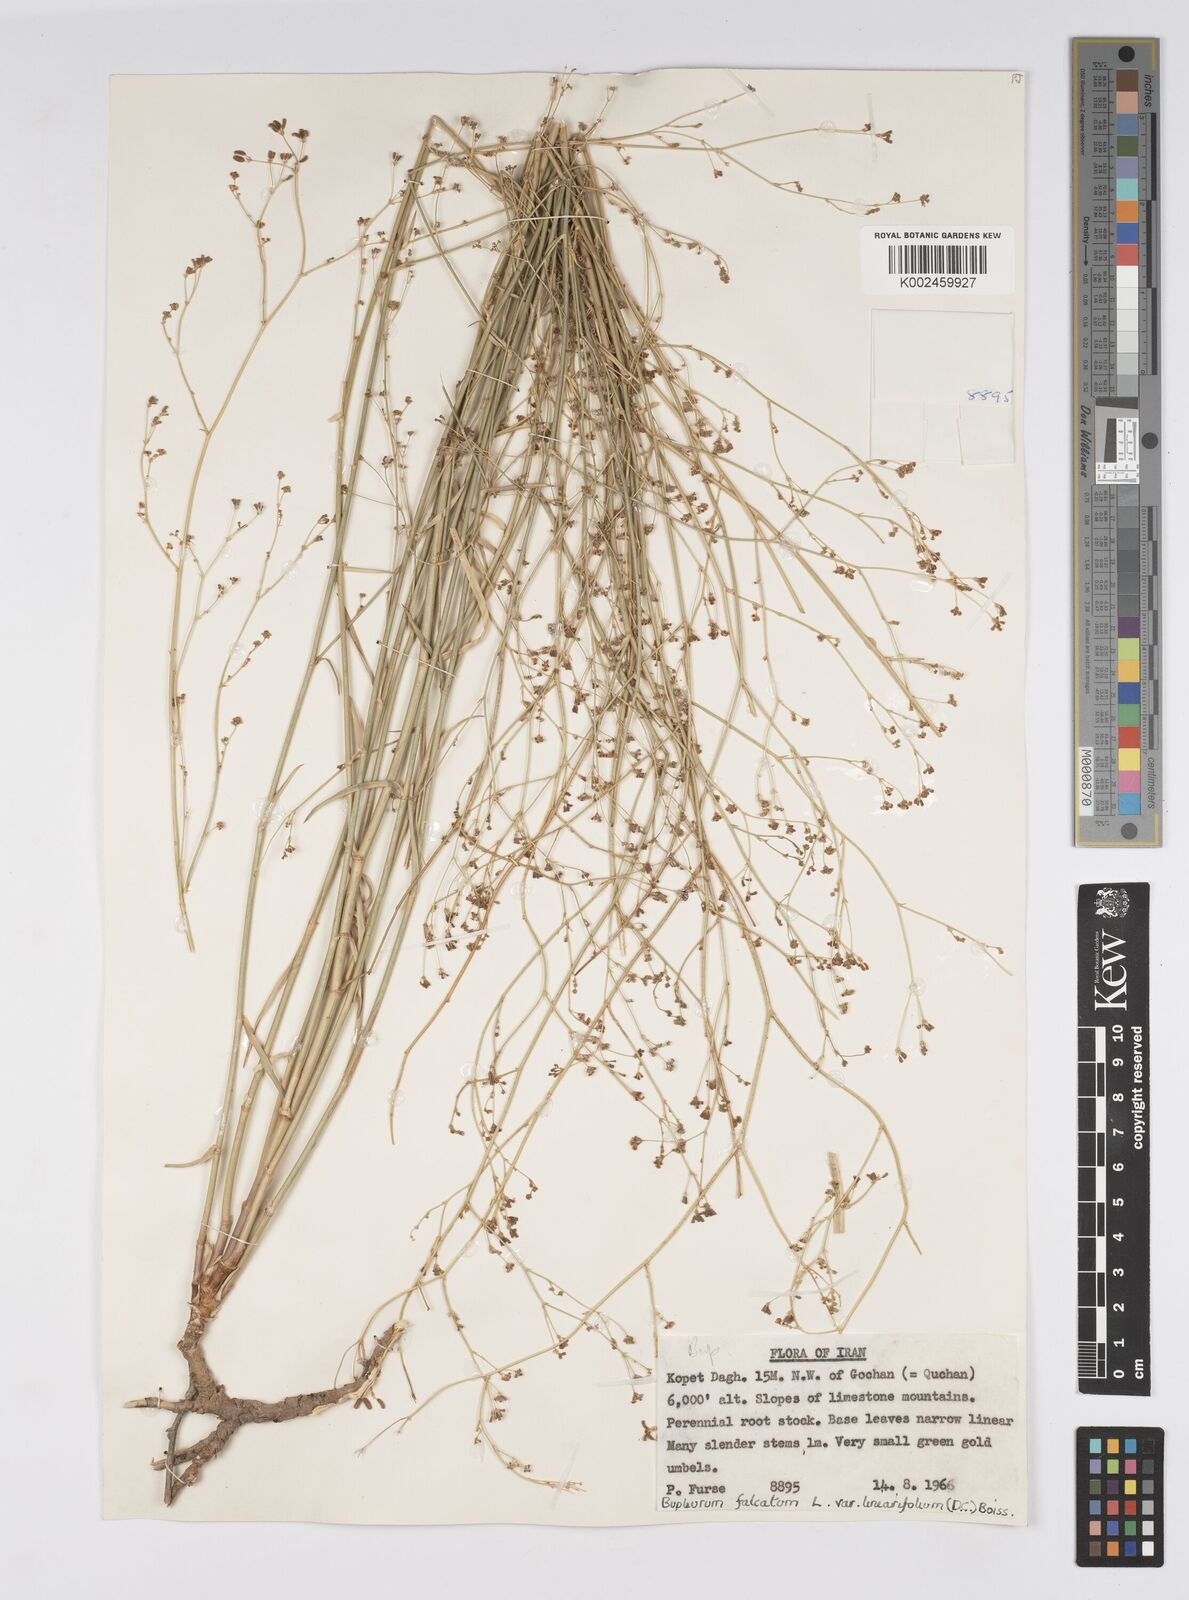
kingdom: Plantae
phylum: Tracheophyta
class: Magnoliopsida
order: Apiales
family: Apiaceae
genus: Bupleurum
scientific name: Bupleurum falcatum
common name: Sickle-leaved hare's-ear
